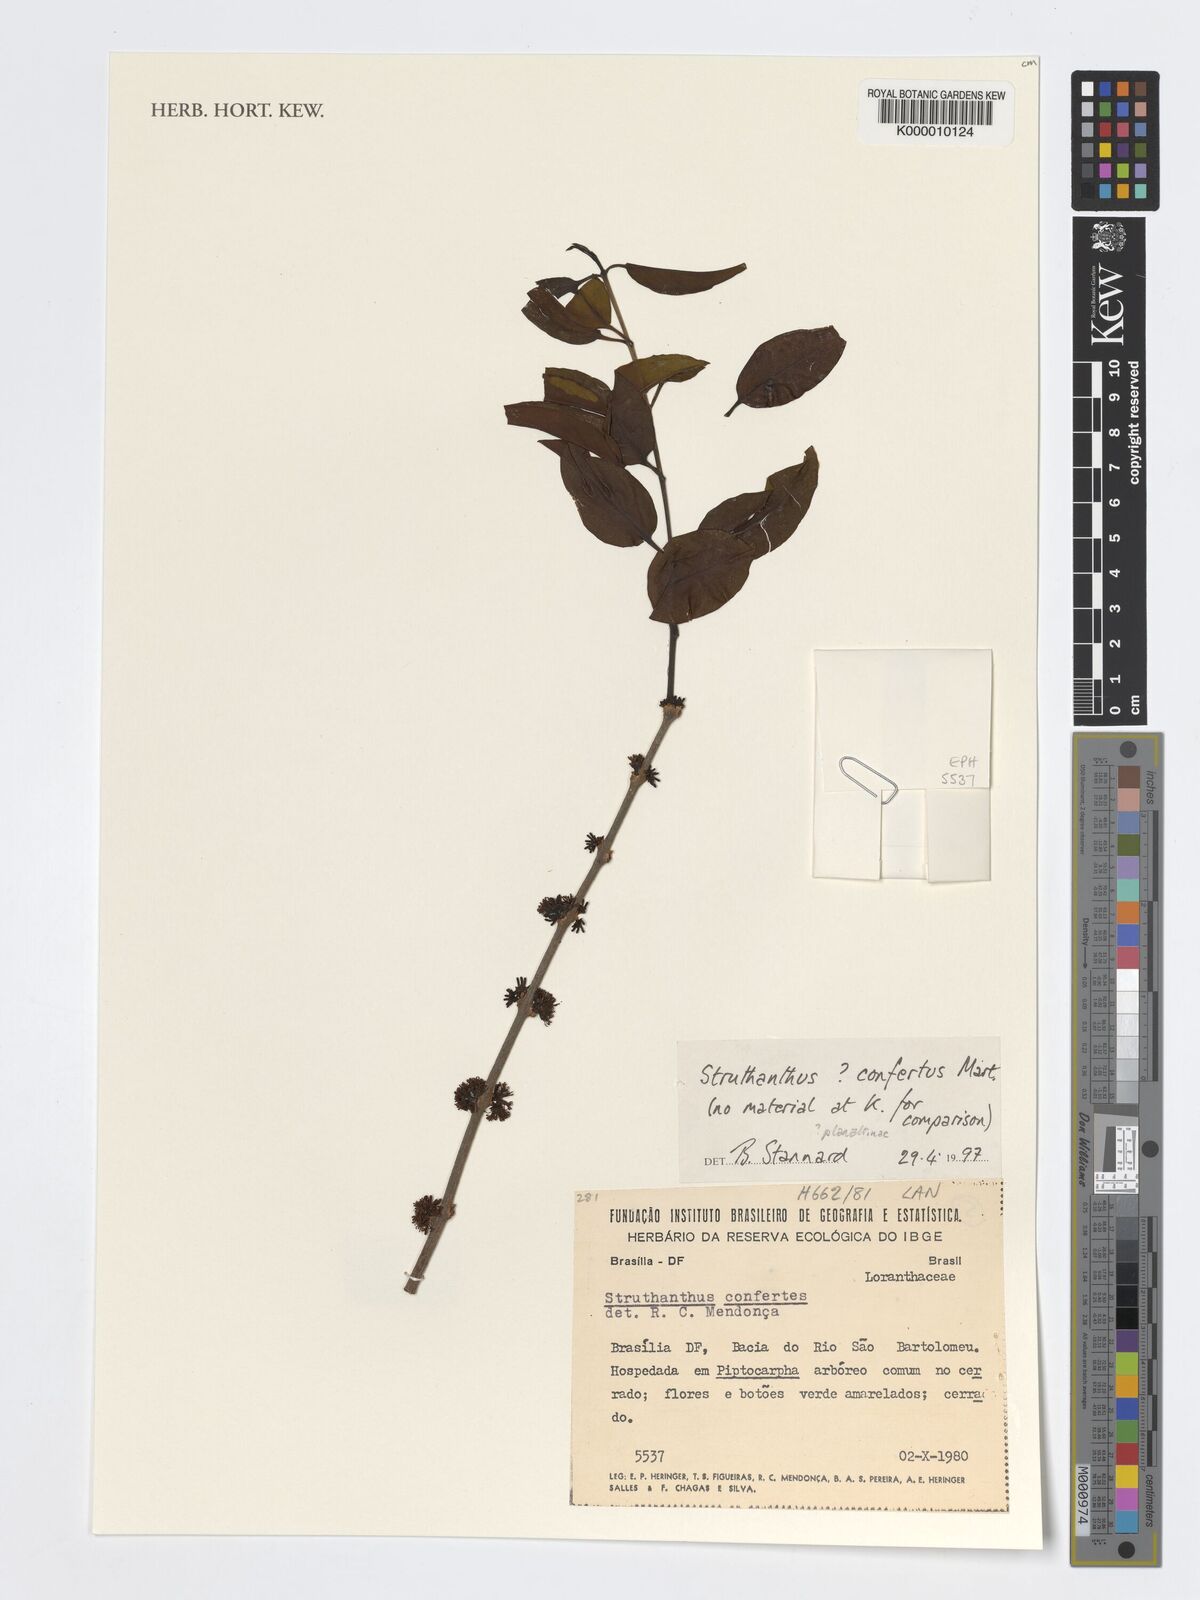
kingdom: Plantae
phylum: Tracheophyta
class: Magnoliopsida
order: Santalales
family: Loranthaceae
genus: Struthanthus
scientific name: Struthanthus confertus
